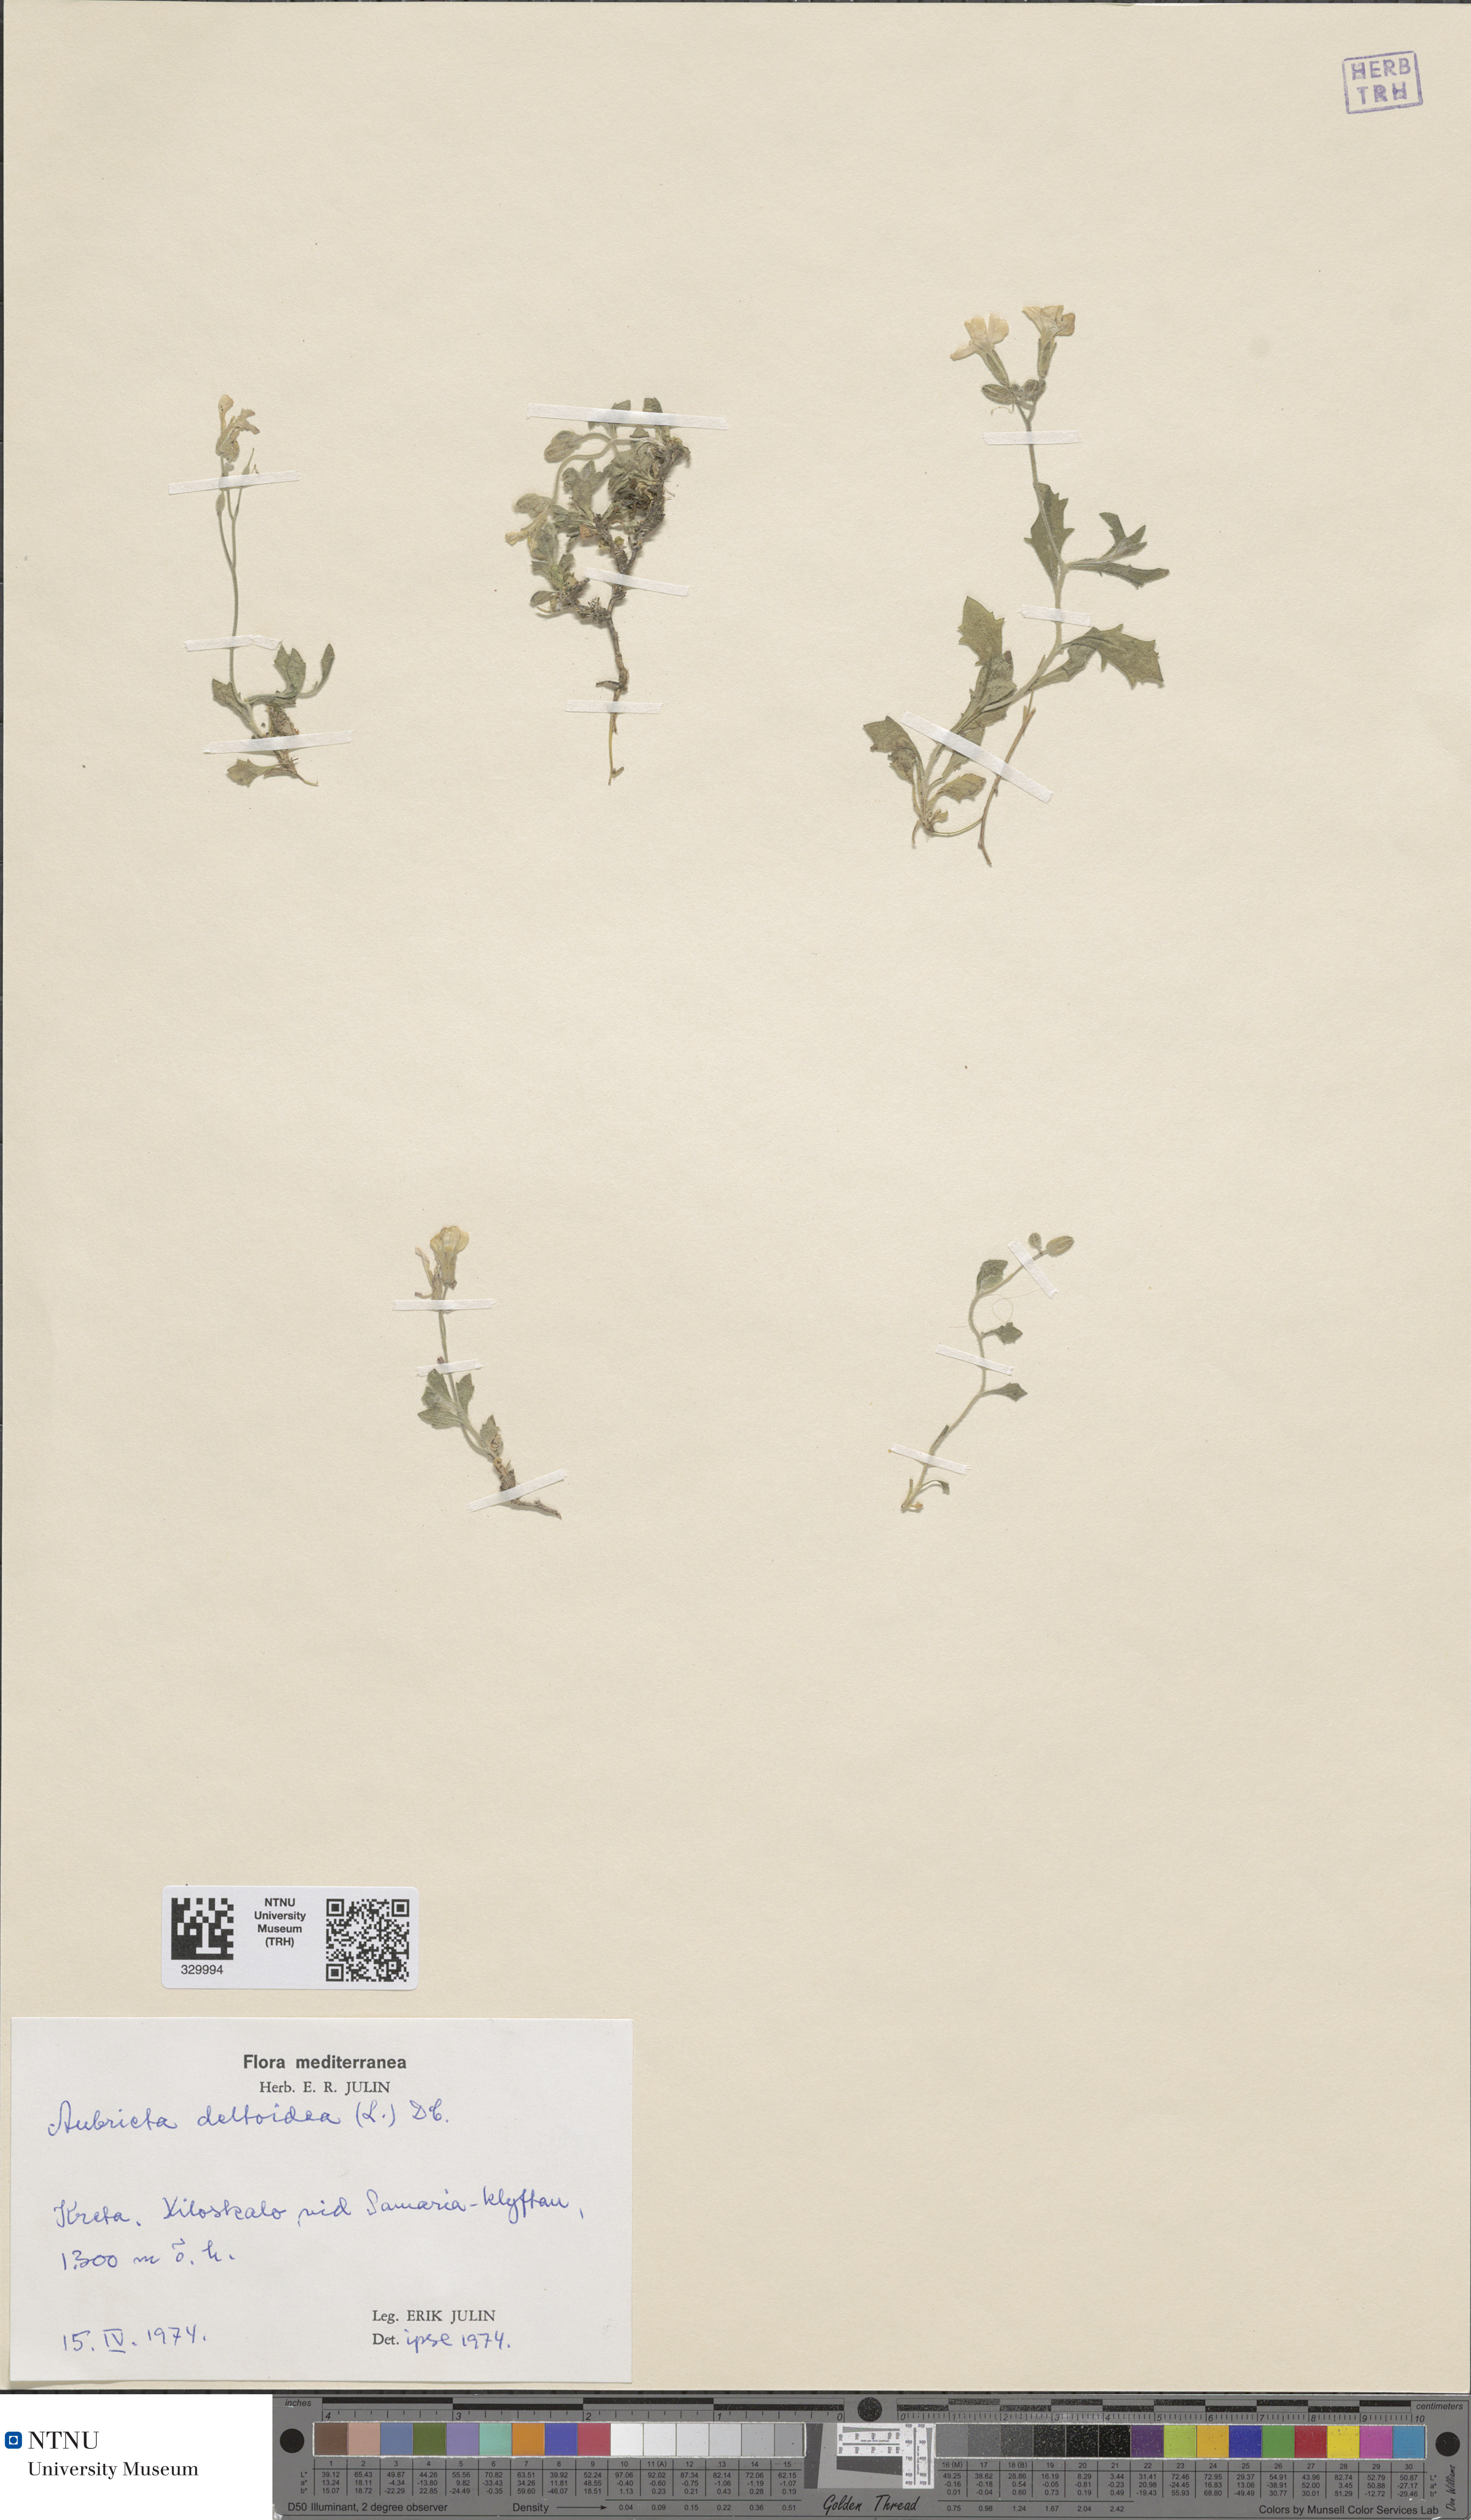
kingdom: Plantae
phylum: Tracheophyta
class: Magnoliopsida
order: Brassicales
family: Brassicaceae
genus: Aubrieta
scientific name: Aubrieta deltoidea
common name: Aubretia
